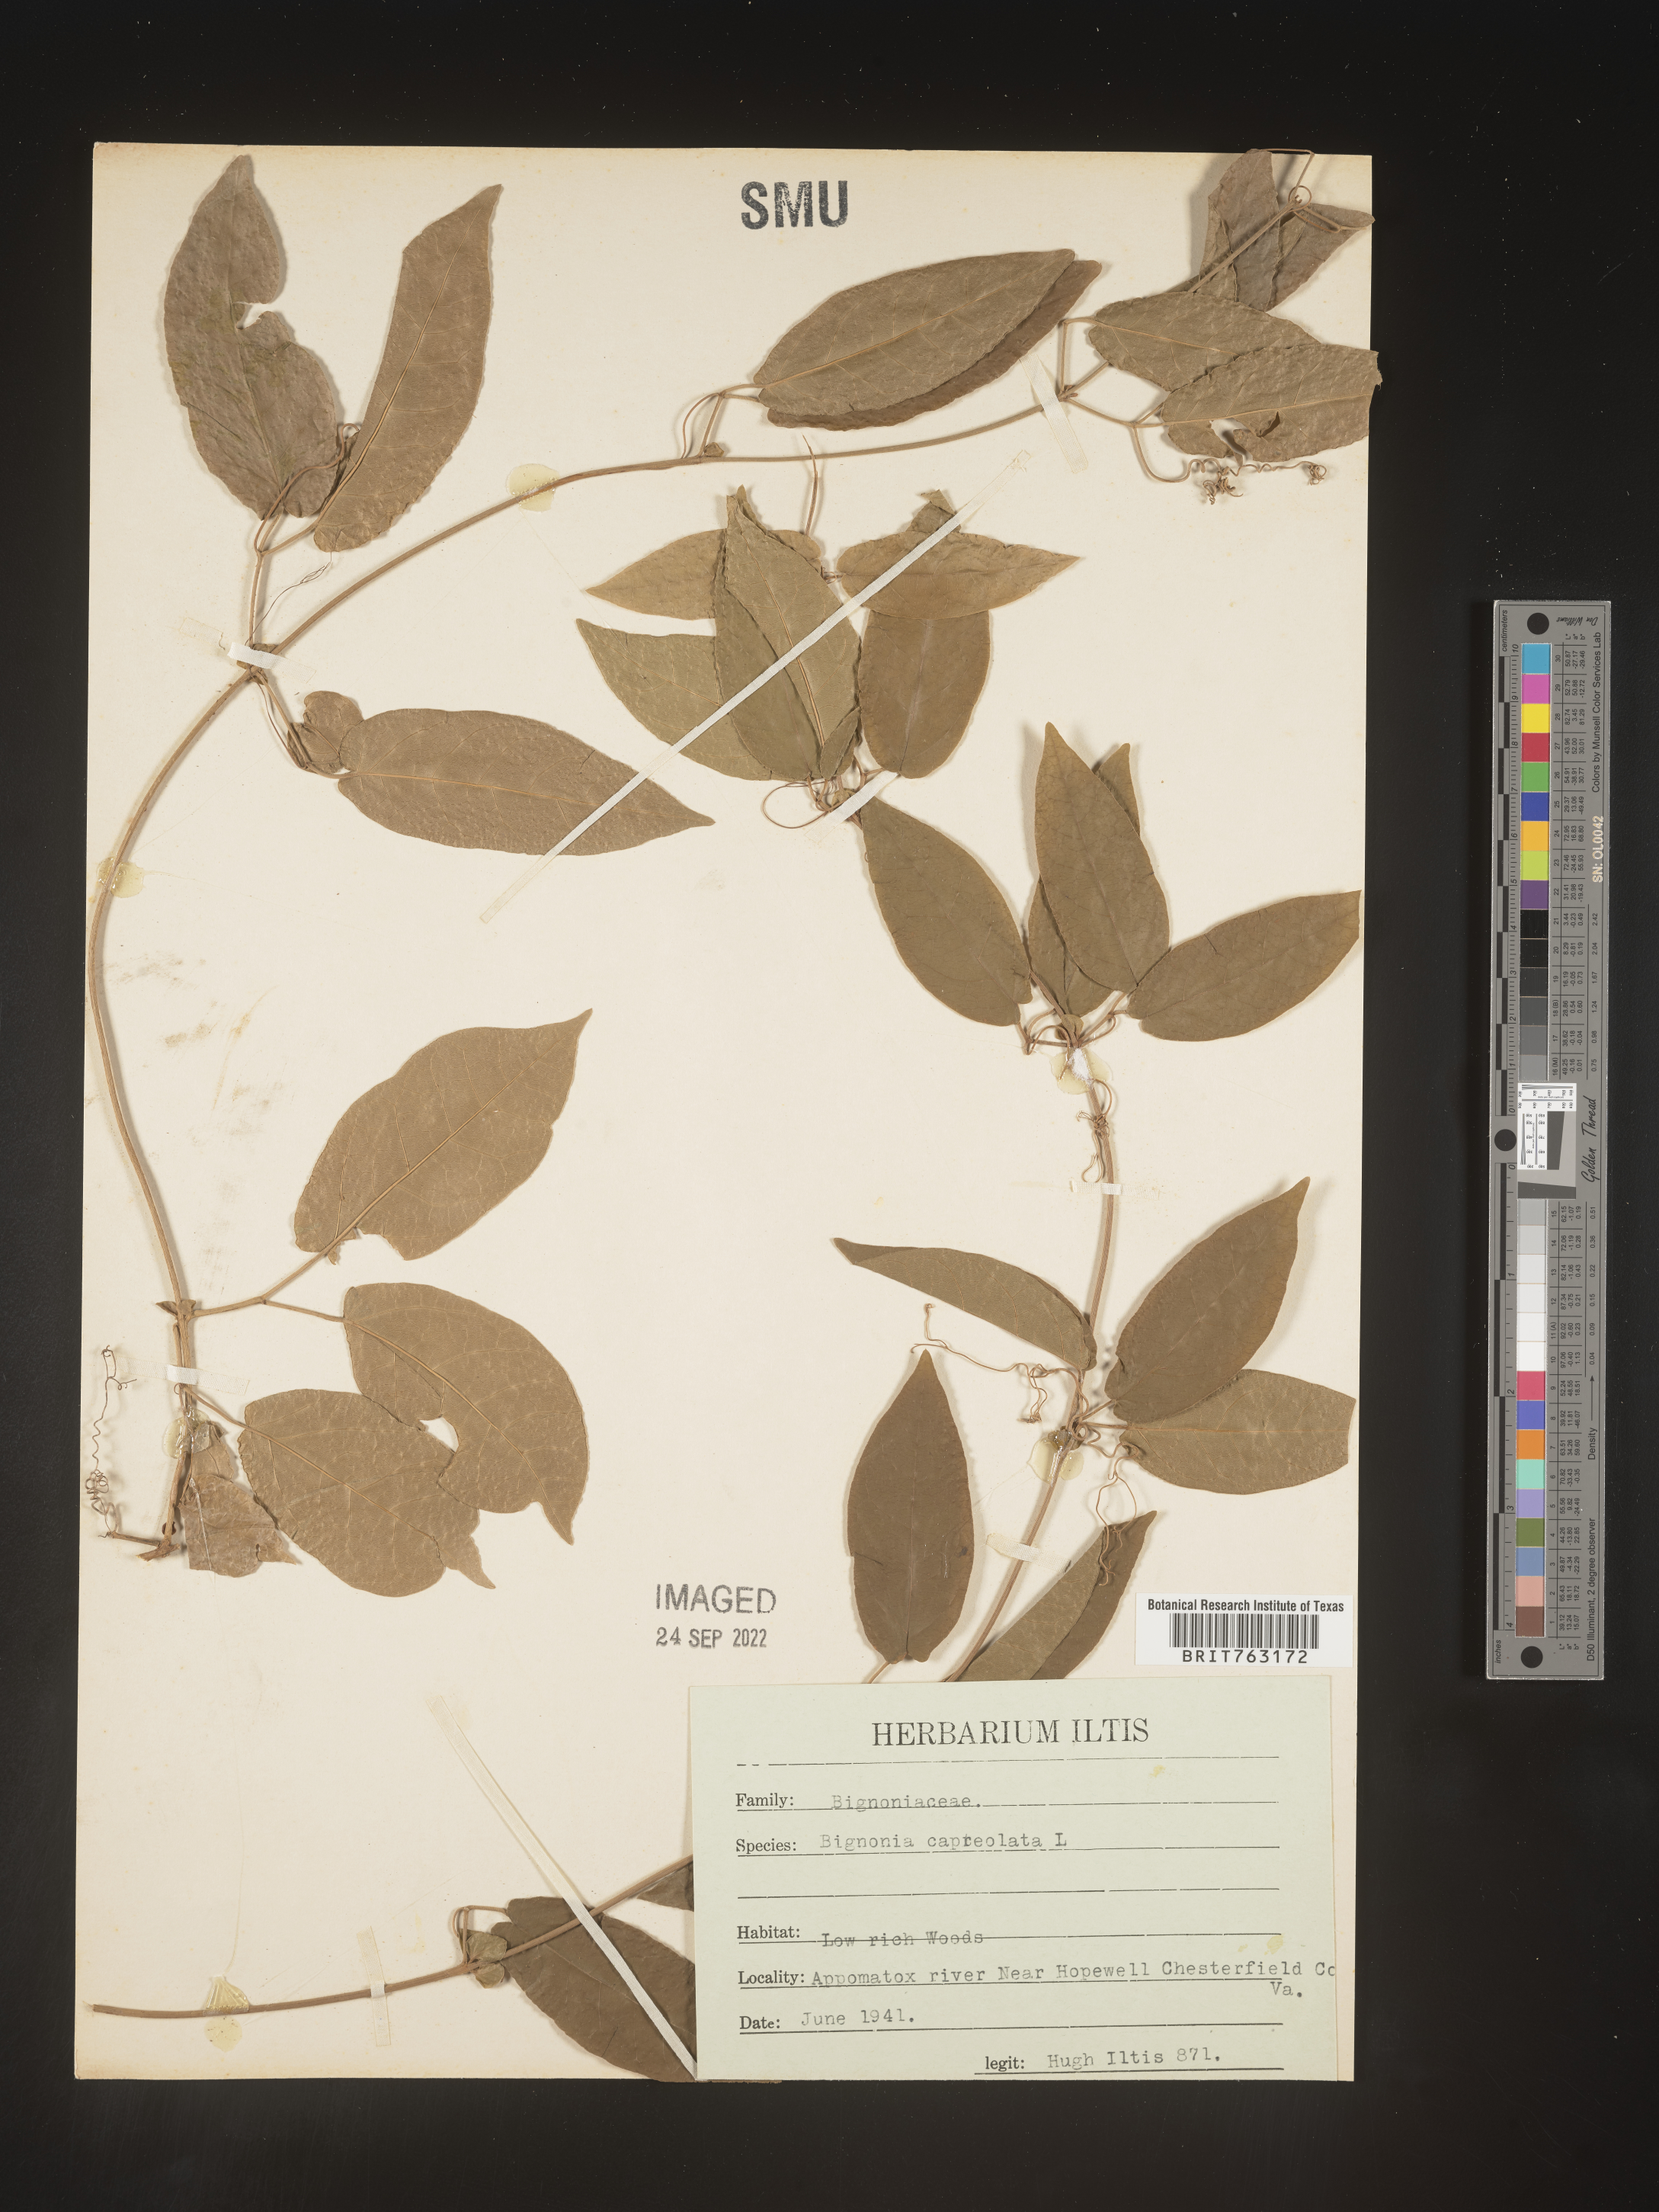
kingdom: Plantae
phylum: Tracheophyta
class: Magnoliopsida
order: Lamiales
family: Bignoniaceae
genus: Bignonia
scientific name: Bignonia capreolata
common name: Crossvine
